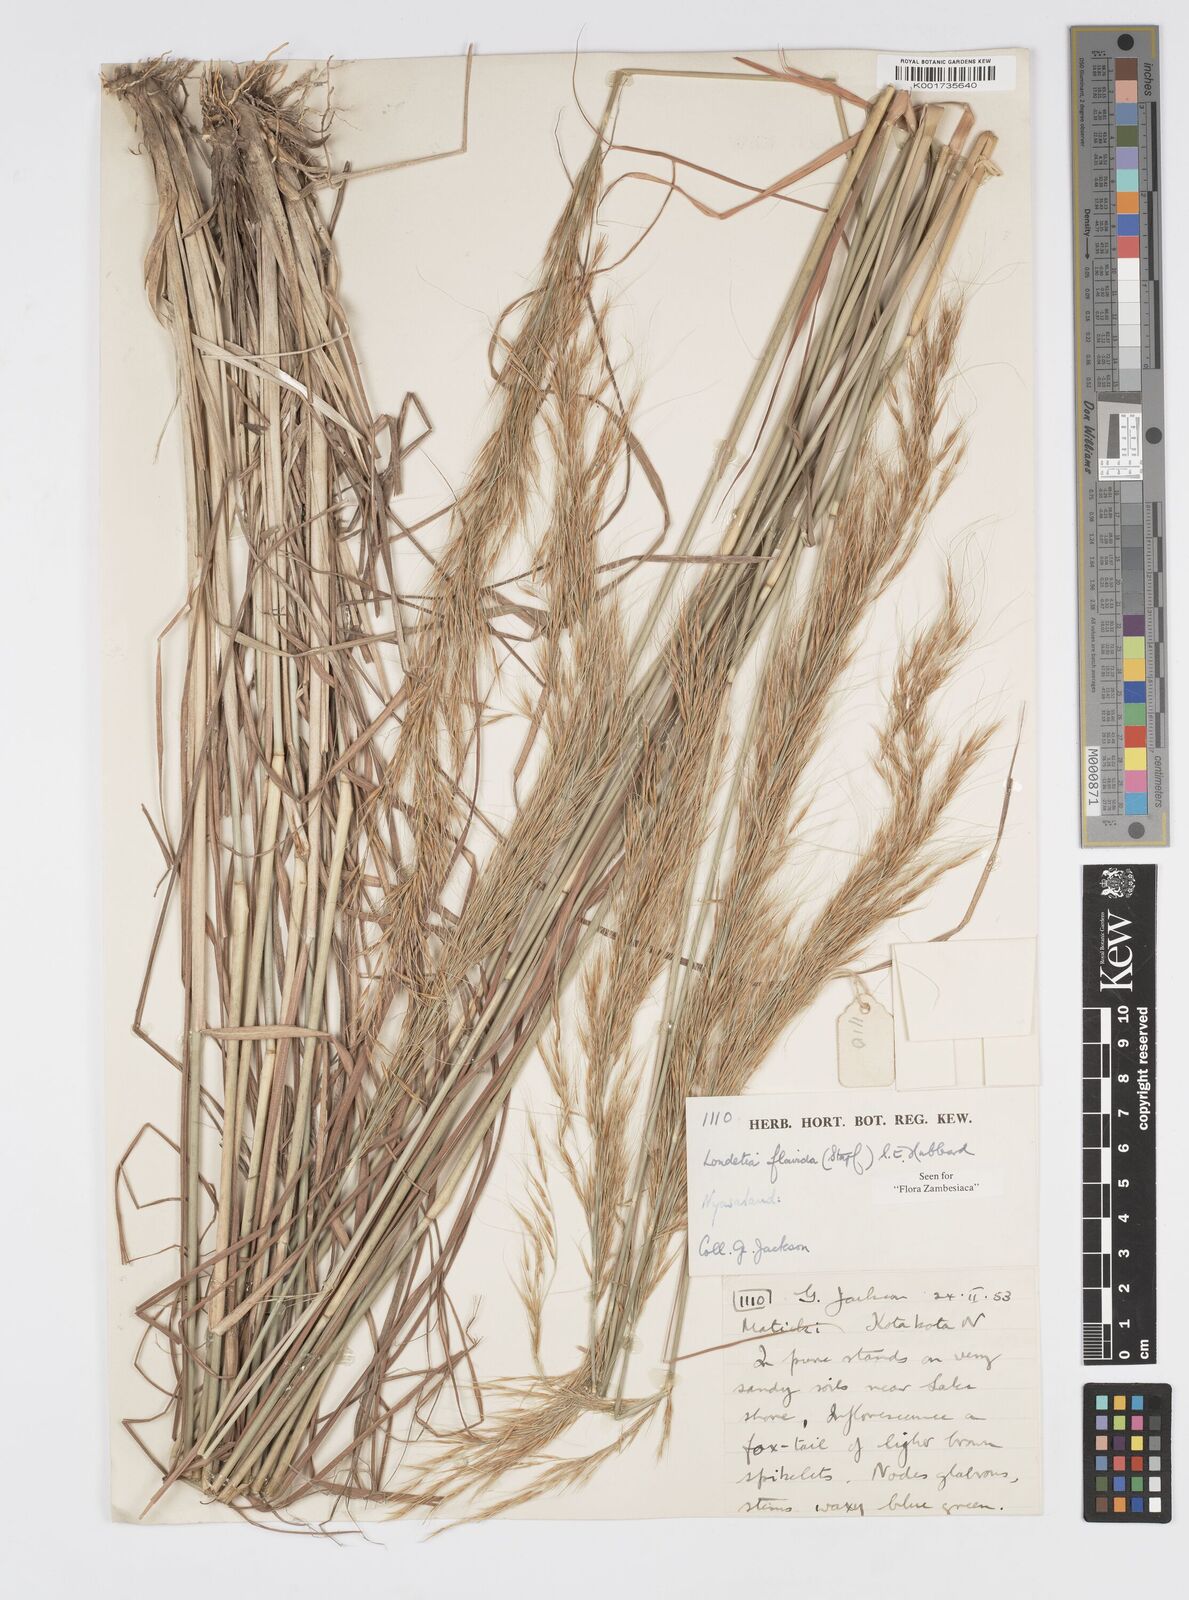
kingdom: Plantae
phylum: Tracheophyta
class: Liliopsida
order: Poales
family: Poaceae
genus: Loudetia
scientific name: Loudetia flavida
